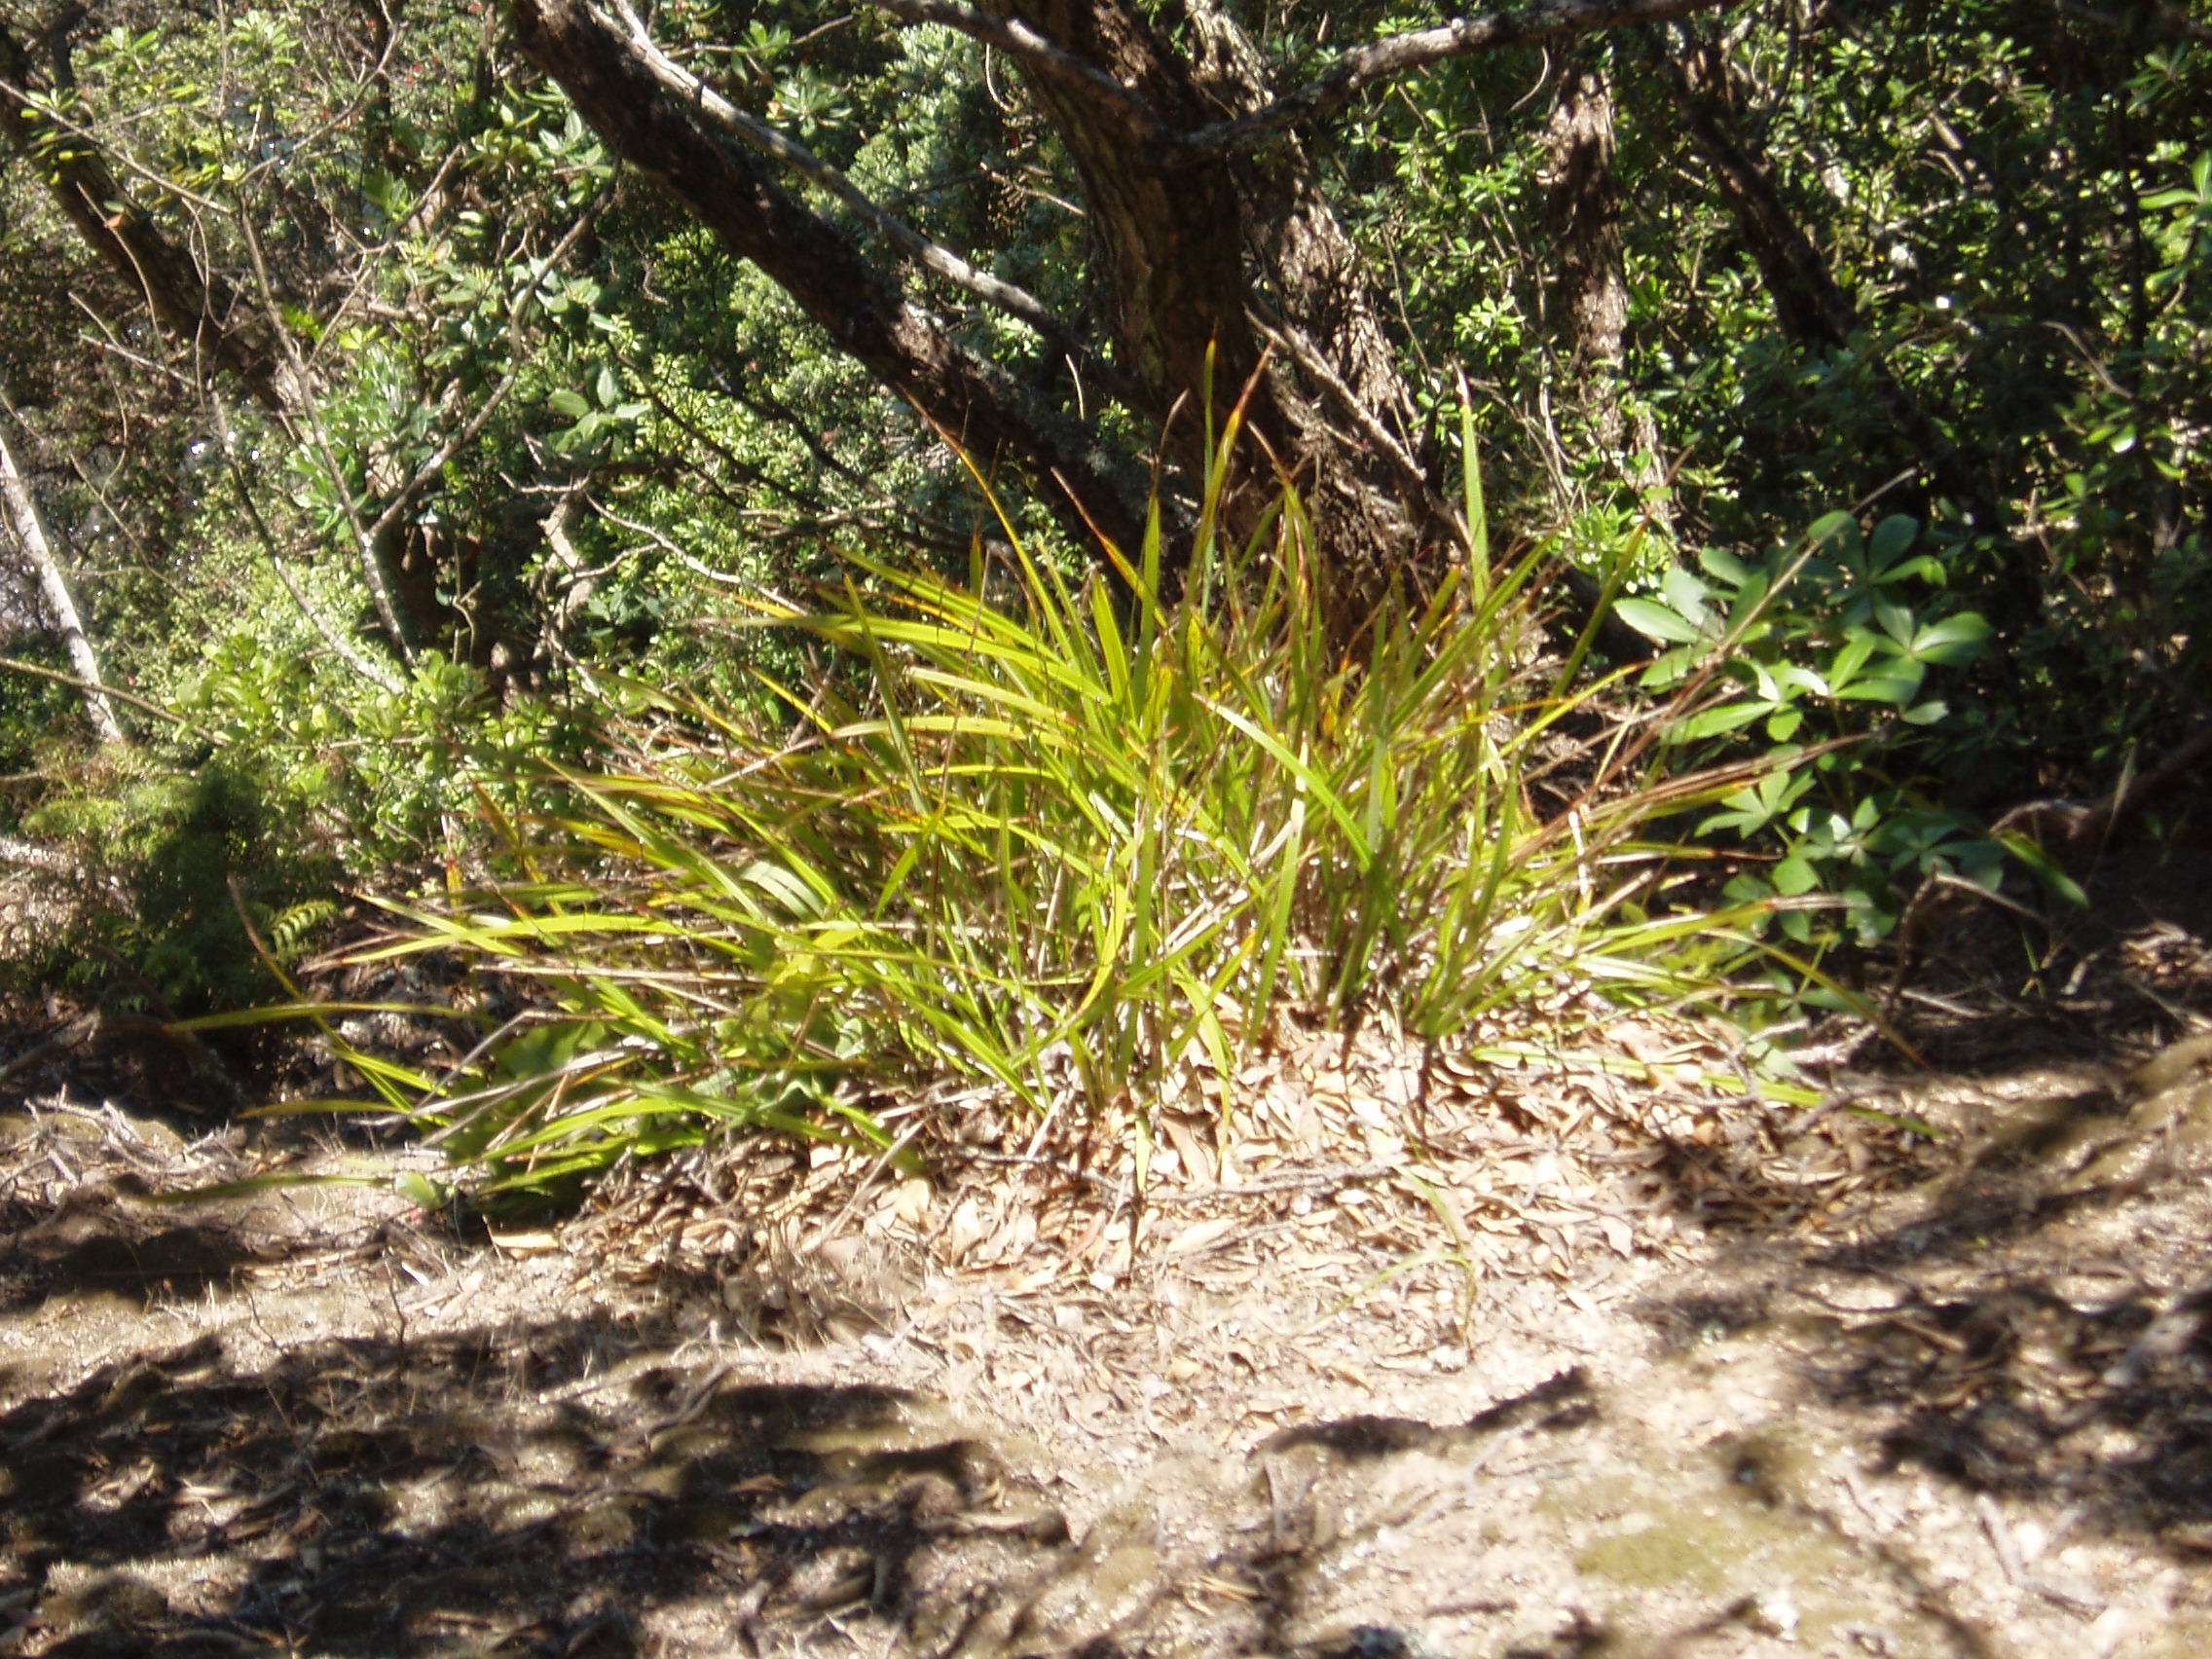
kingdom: Plantae
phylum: Tracheophyta
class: Liliopsida
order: Asparagales
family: Asphodelaceae
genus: Dianella
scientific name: Dianella latissima
